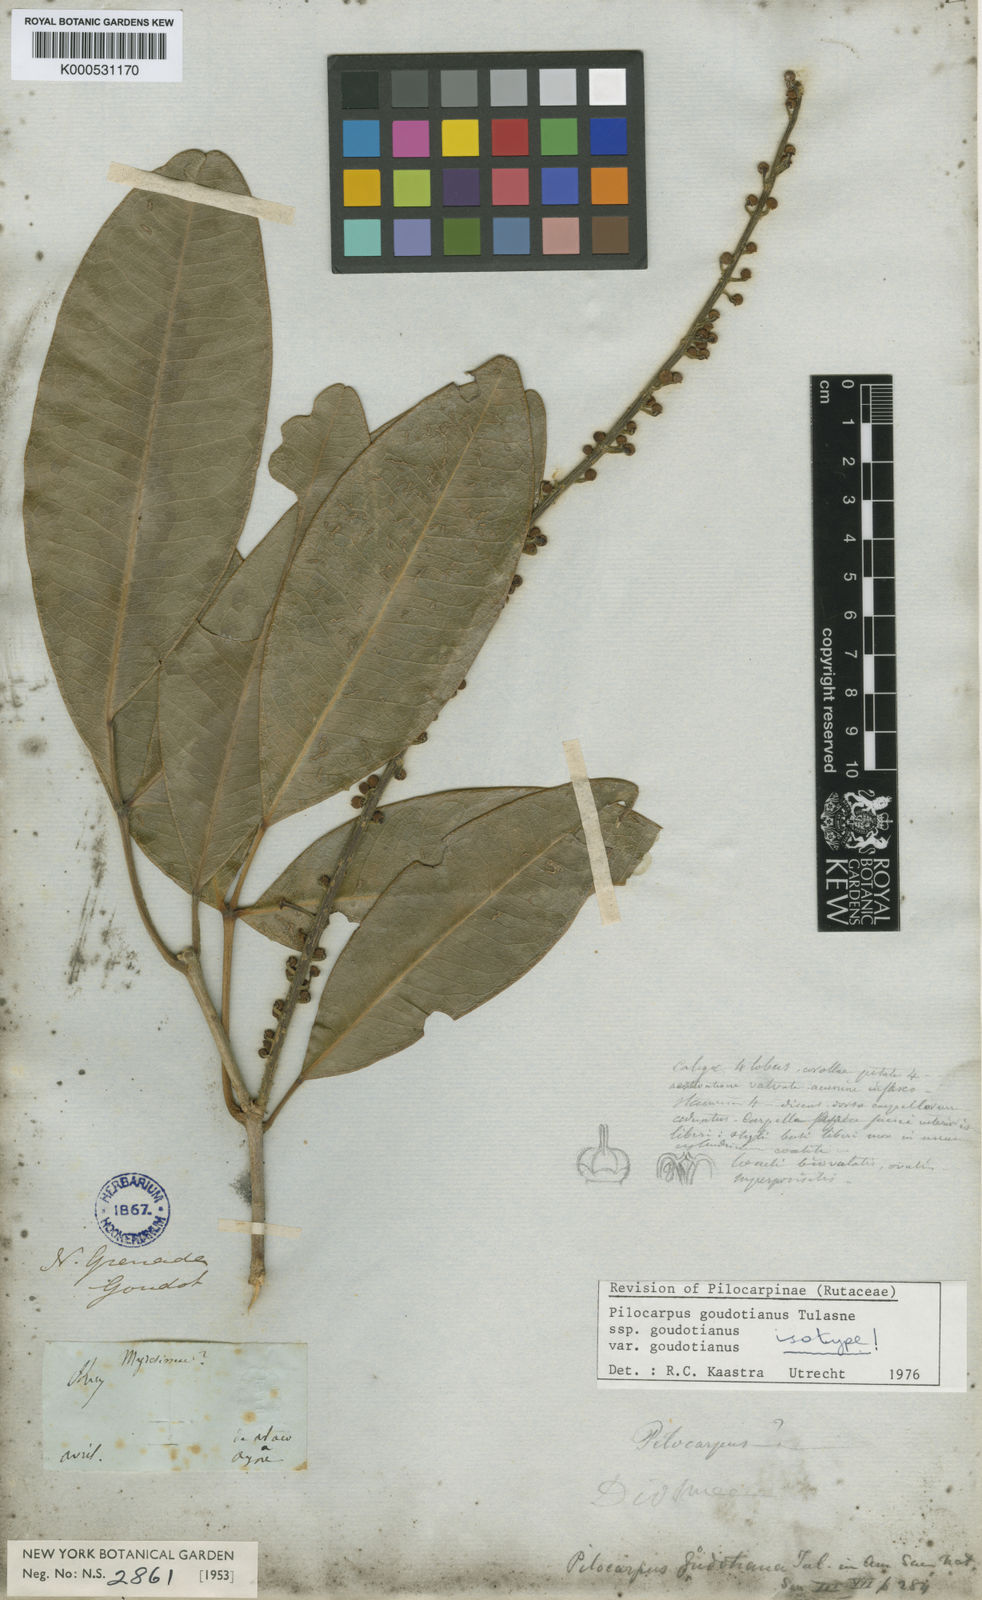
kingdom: Plantae
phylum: Tracheophyta
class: Magnoliopsida
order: Sapindales
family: Rutaceae
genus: Pilocarpus
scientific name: Pilocarpus racemosus
